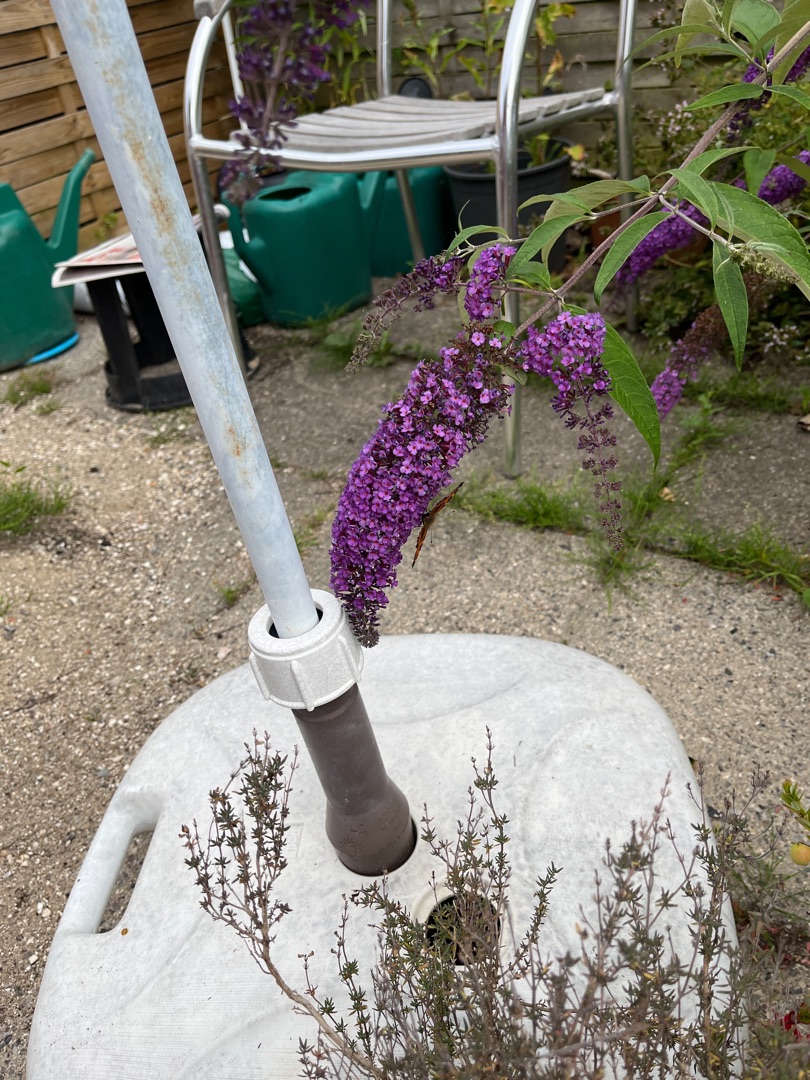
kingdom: Animalia
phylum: Arthropoda
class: Insecta
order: Lepidoptera
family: Nymphalidae
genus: Aglais
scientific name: Aglais urticae
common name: Nældens takvinge
